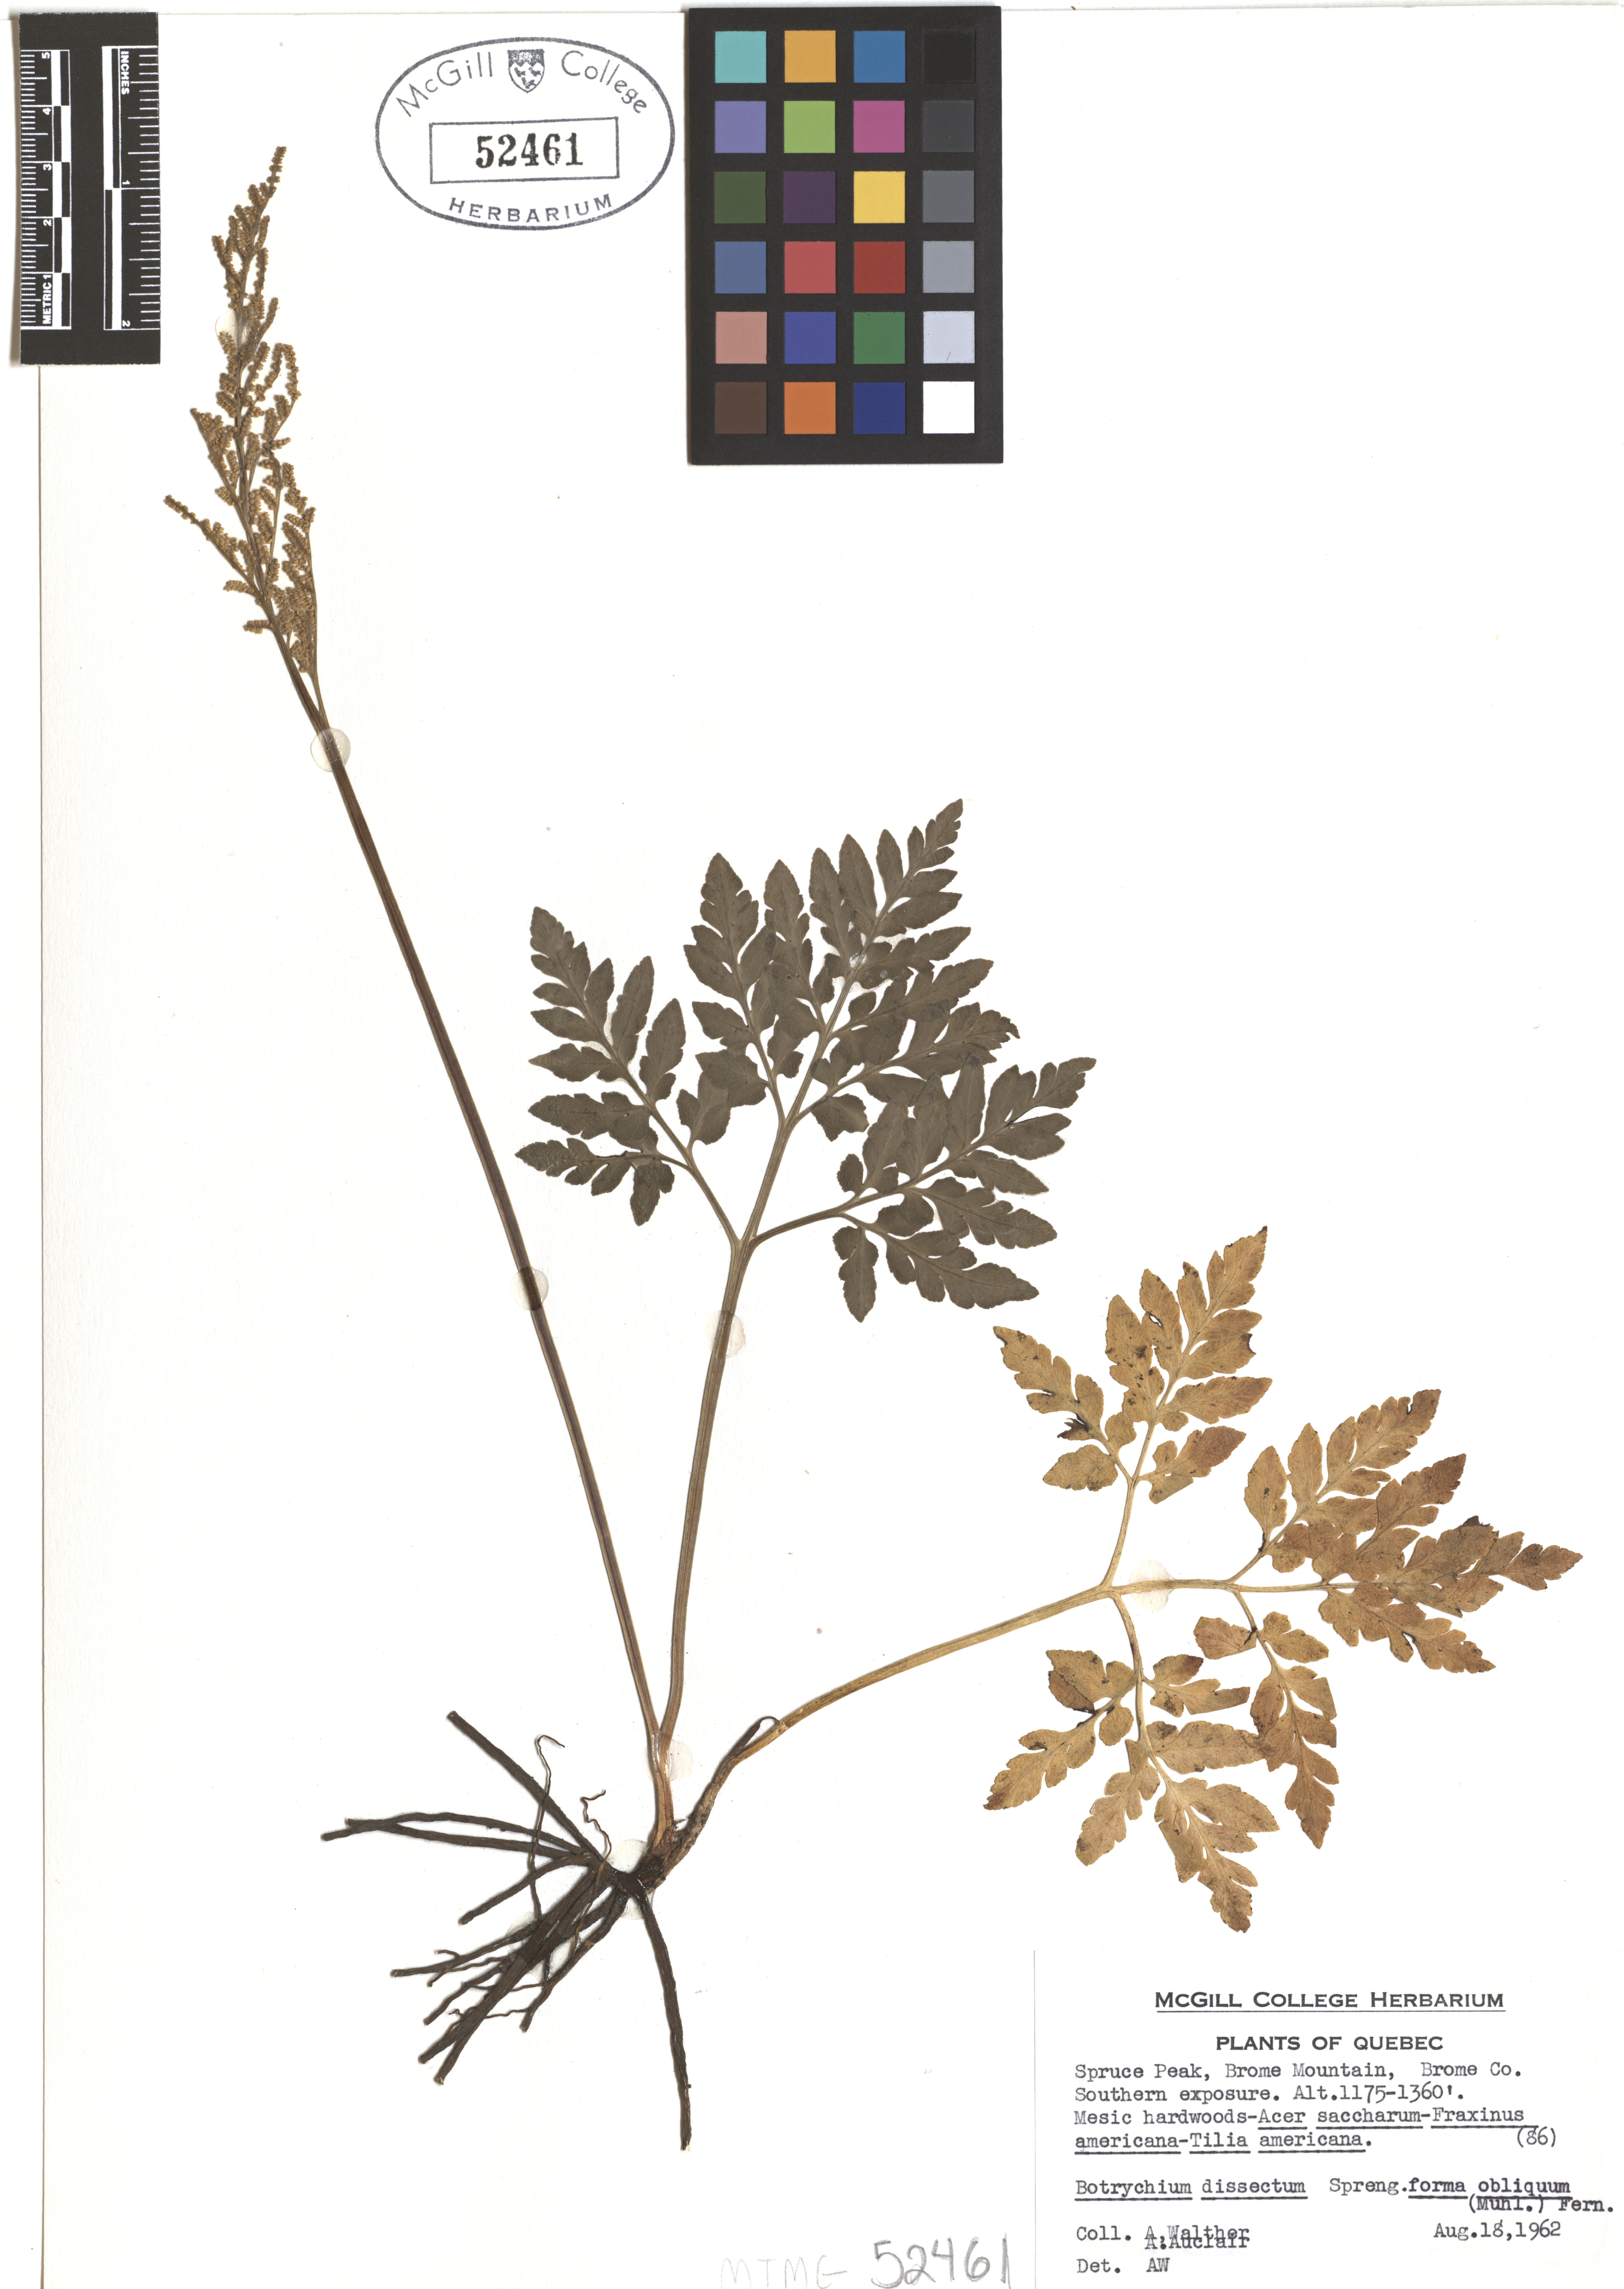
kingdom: Plantae
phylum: Tracheophyta
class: Polypodiopsida
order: Ophioglossales
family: Ophioglossaceae
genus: Sceptridium
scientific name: Sceptridium dissectum
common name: Cut-leaved grapefern
